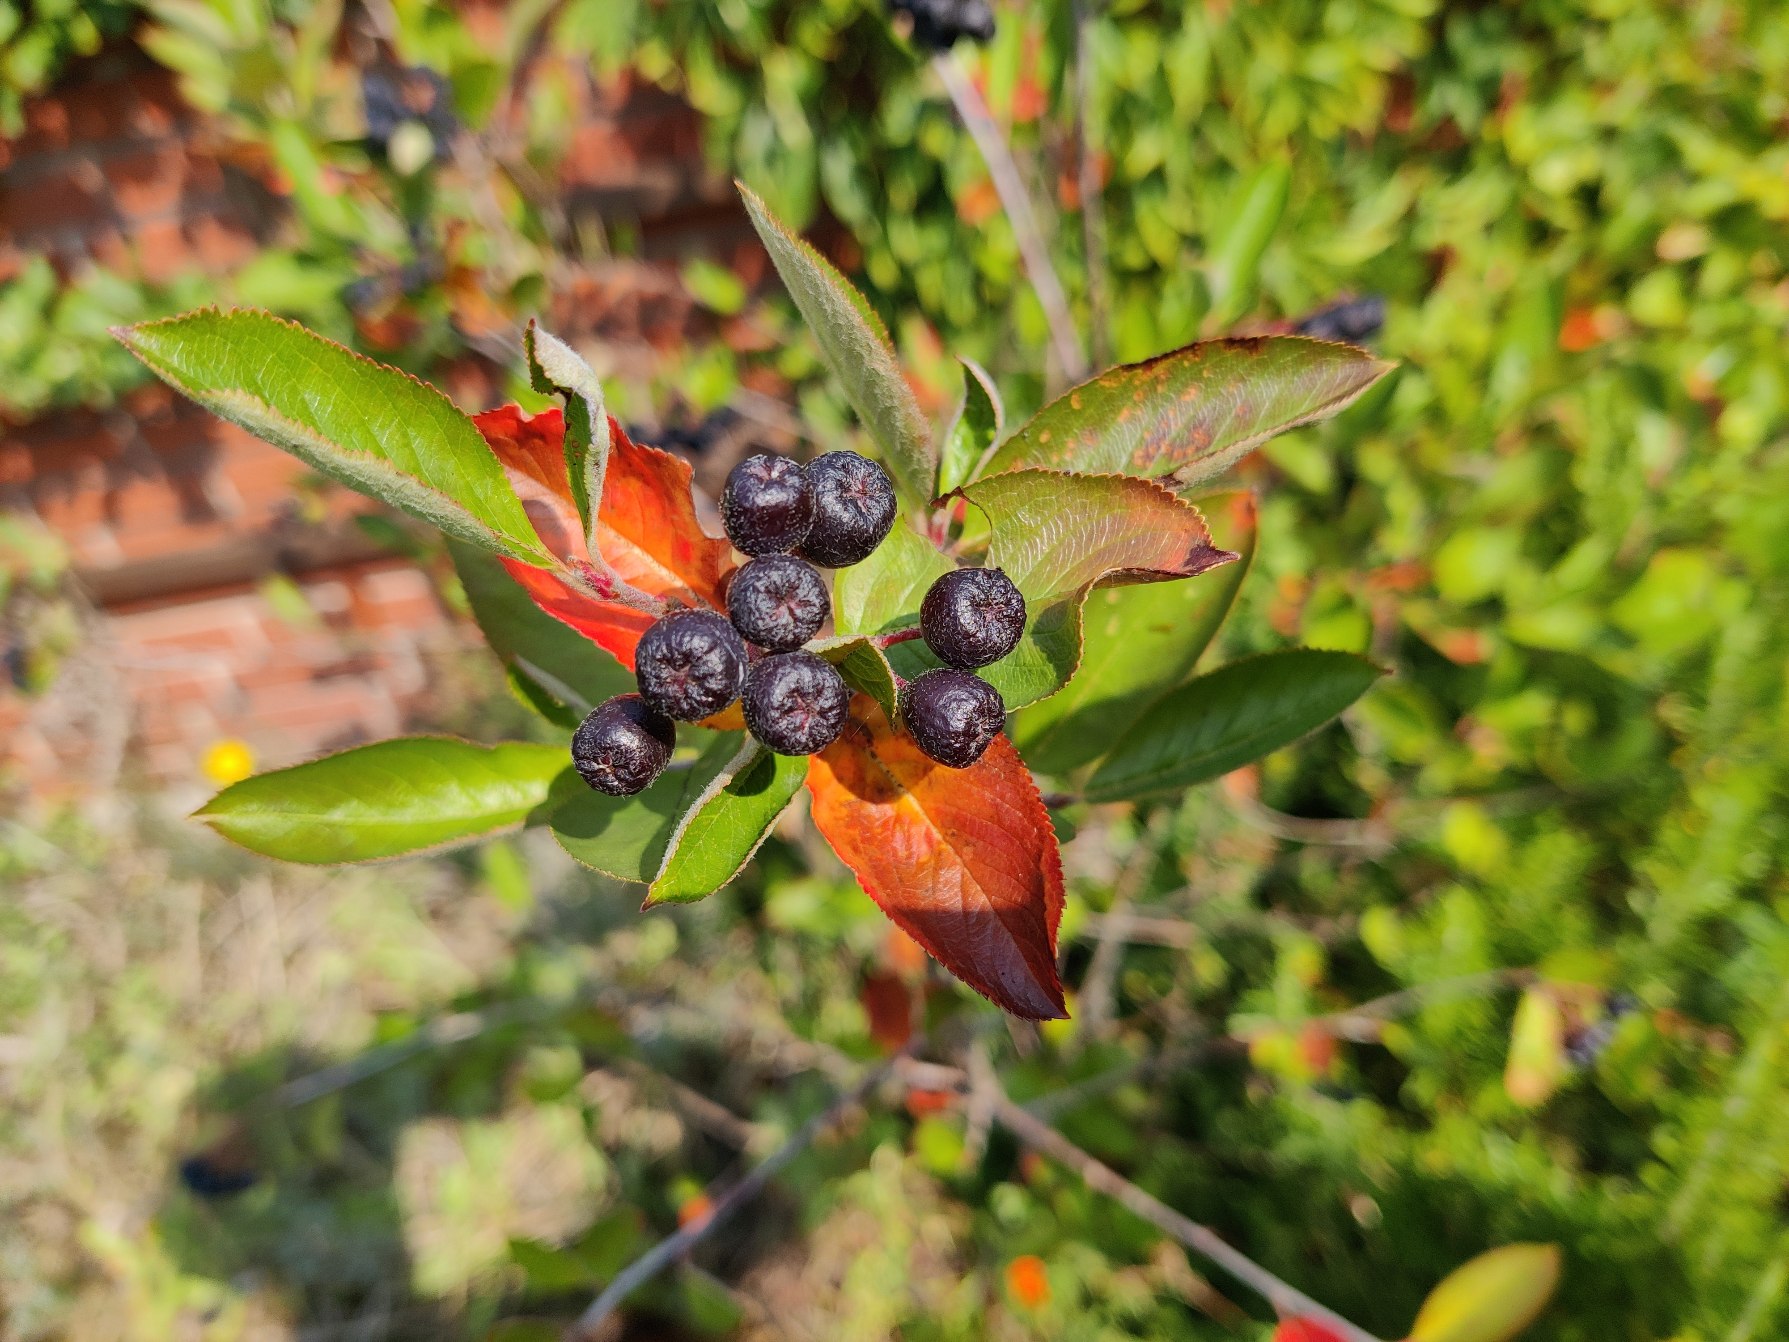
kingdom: Plantae
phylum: Tracheophyta
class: Magnoliopsida
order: Rosales
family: Rosaceae
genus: Aronia
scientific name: Aronia melanocarpa
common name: Sortfrugtet surbær
